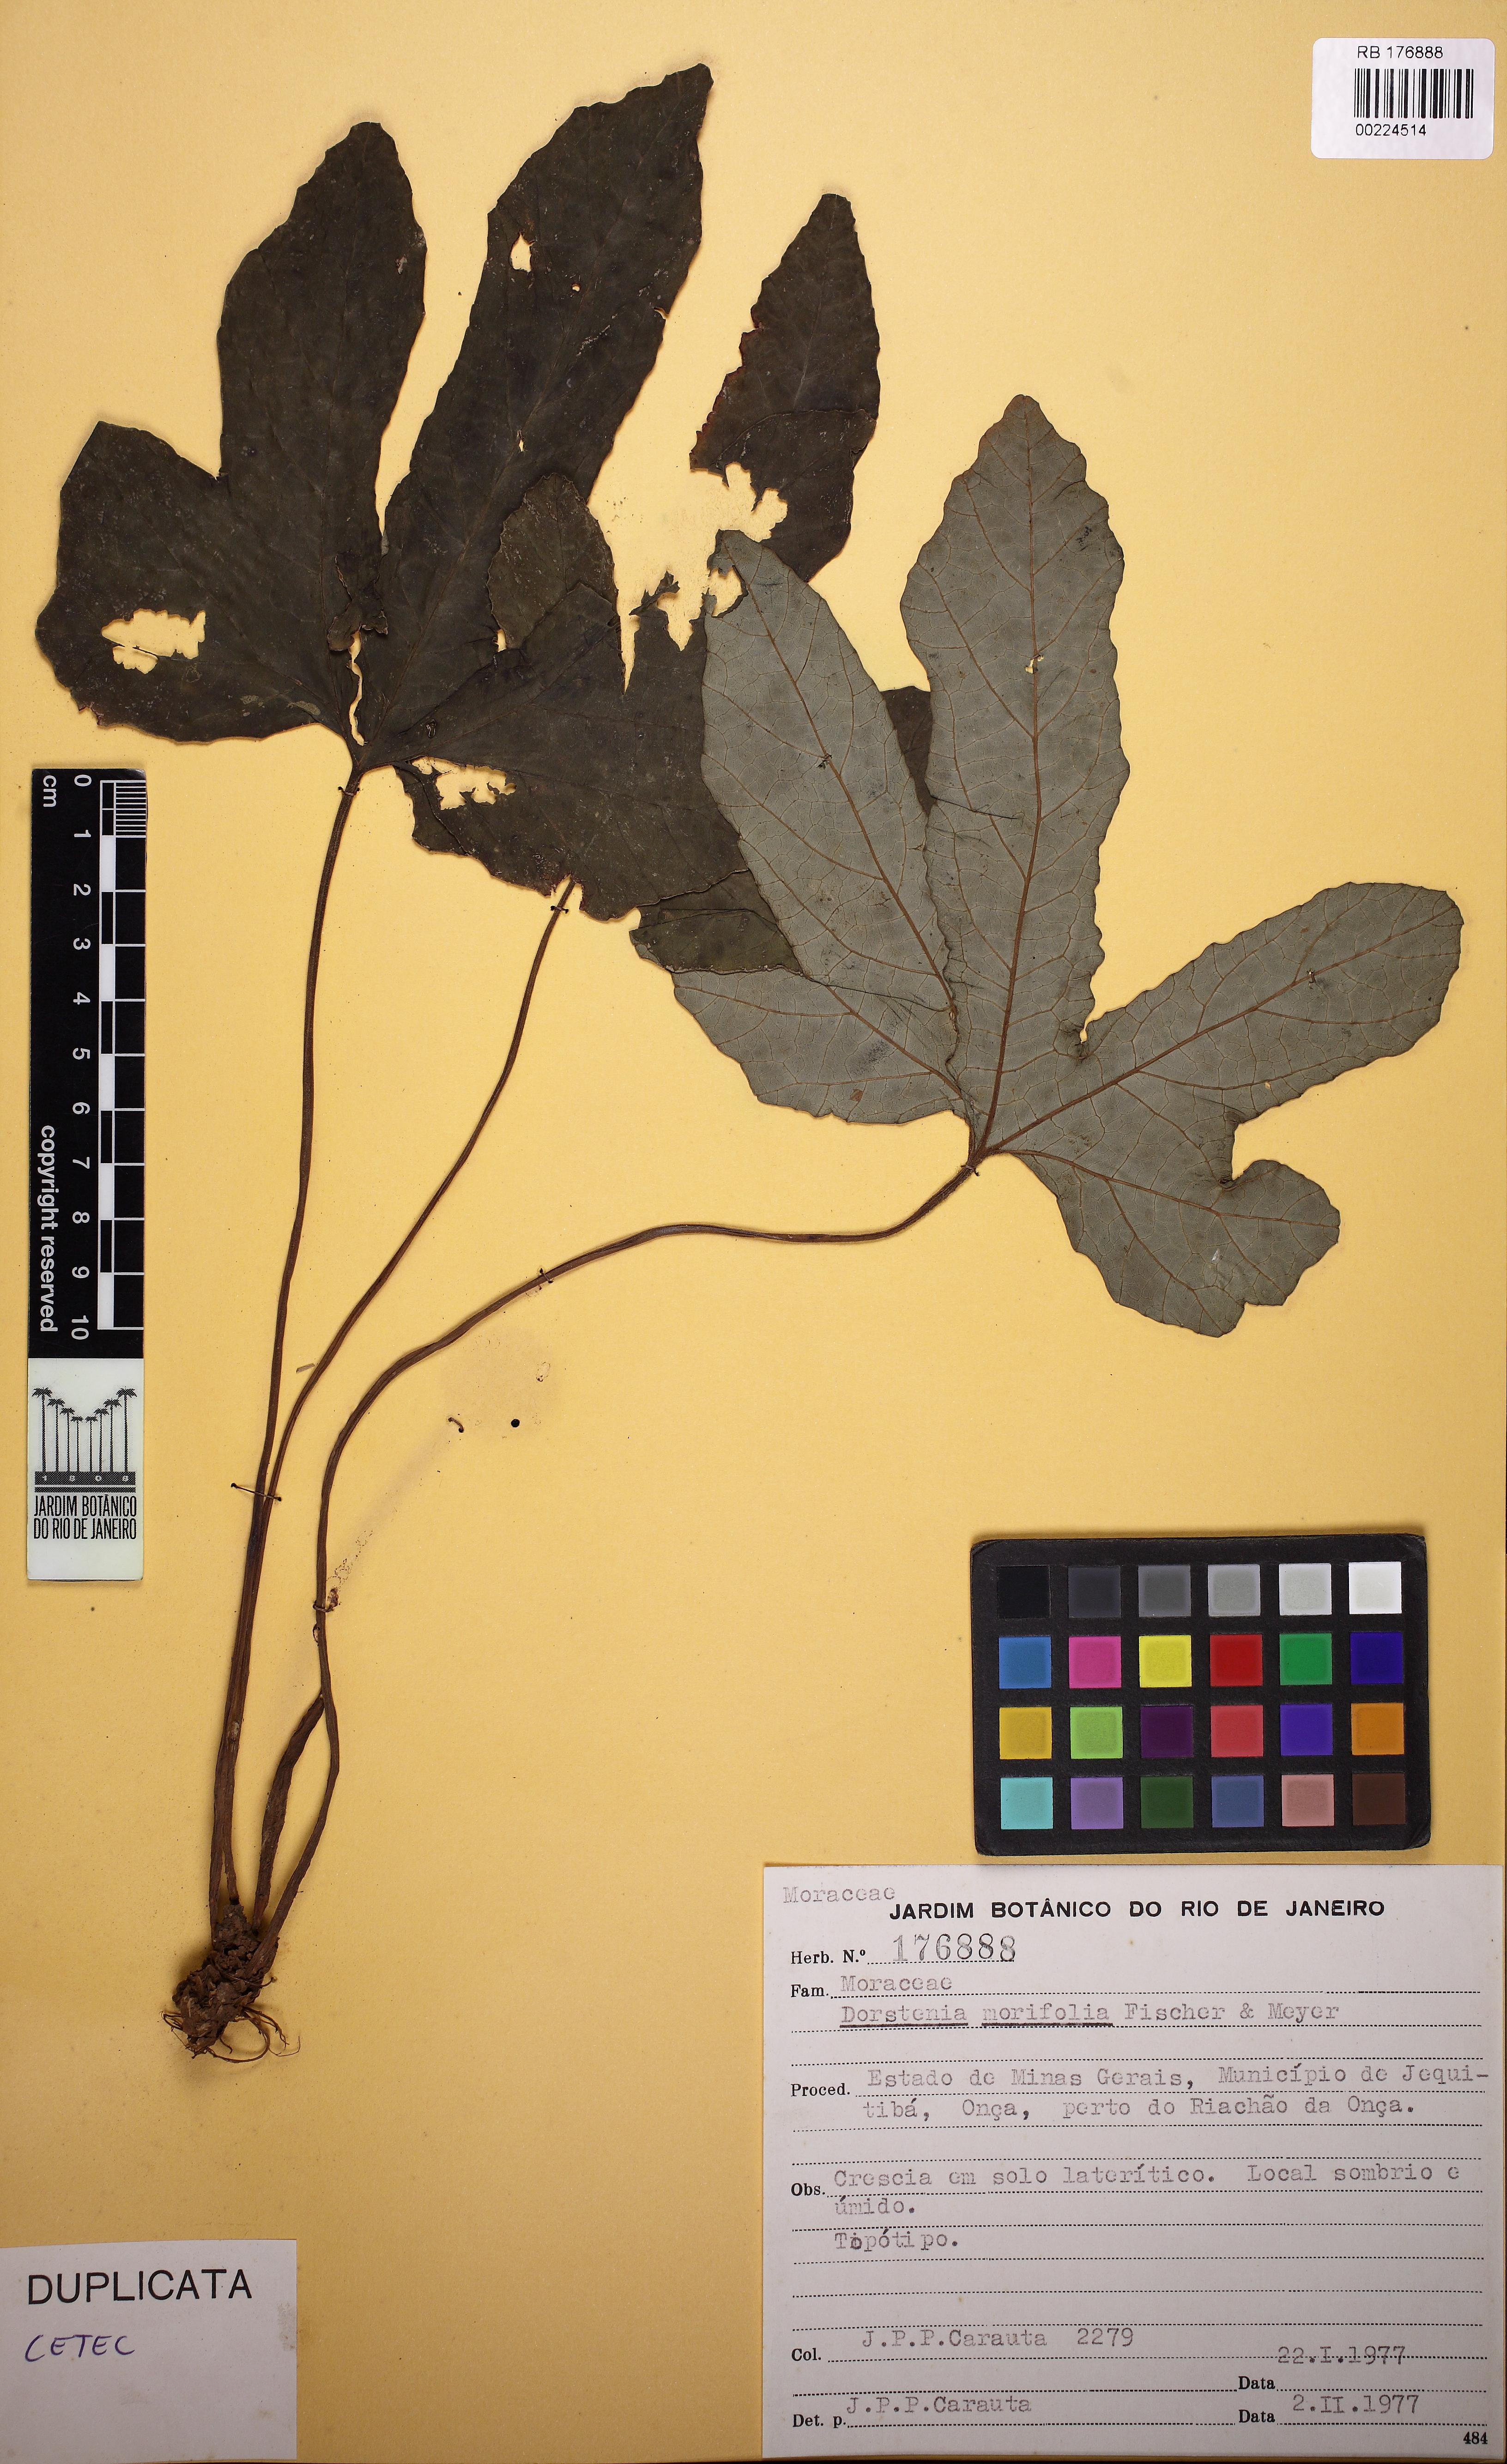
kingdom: Plantae
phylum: Tracheophyta
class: Magnoliopsida
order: Rosales
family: Moraceae
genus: Dorstenia
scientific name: Dorstenia cayapia
